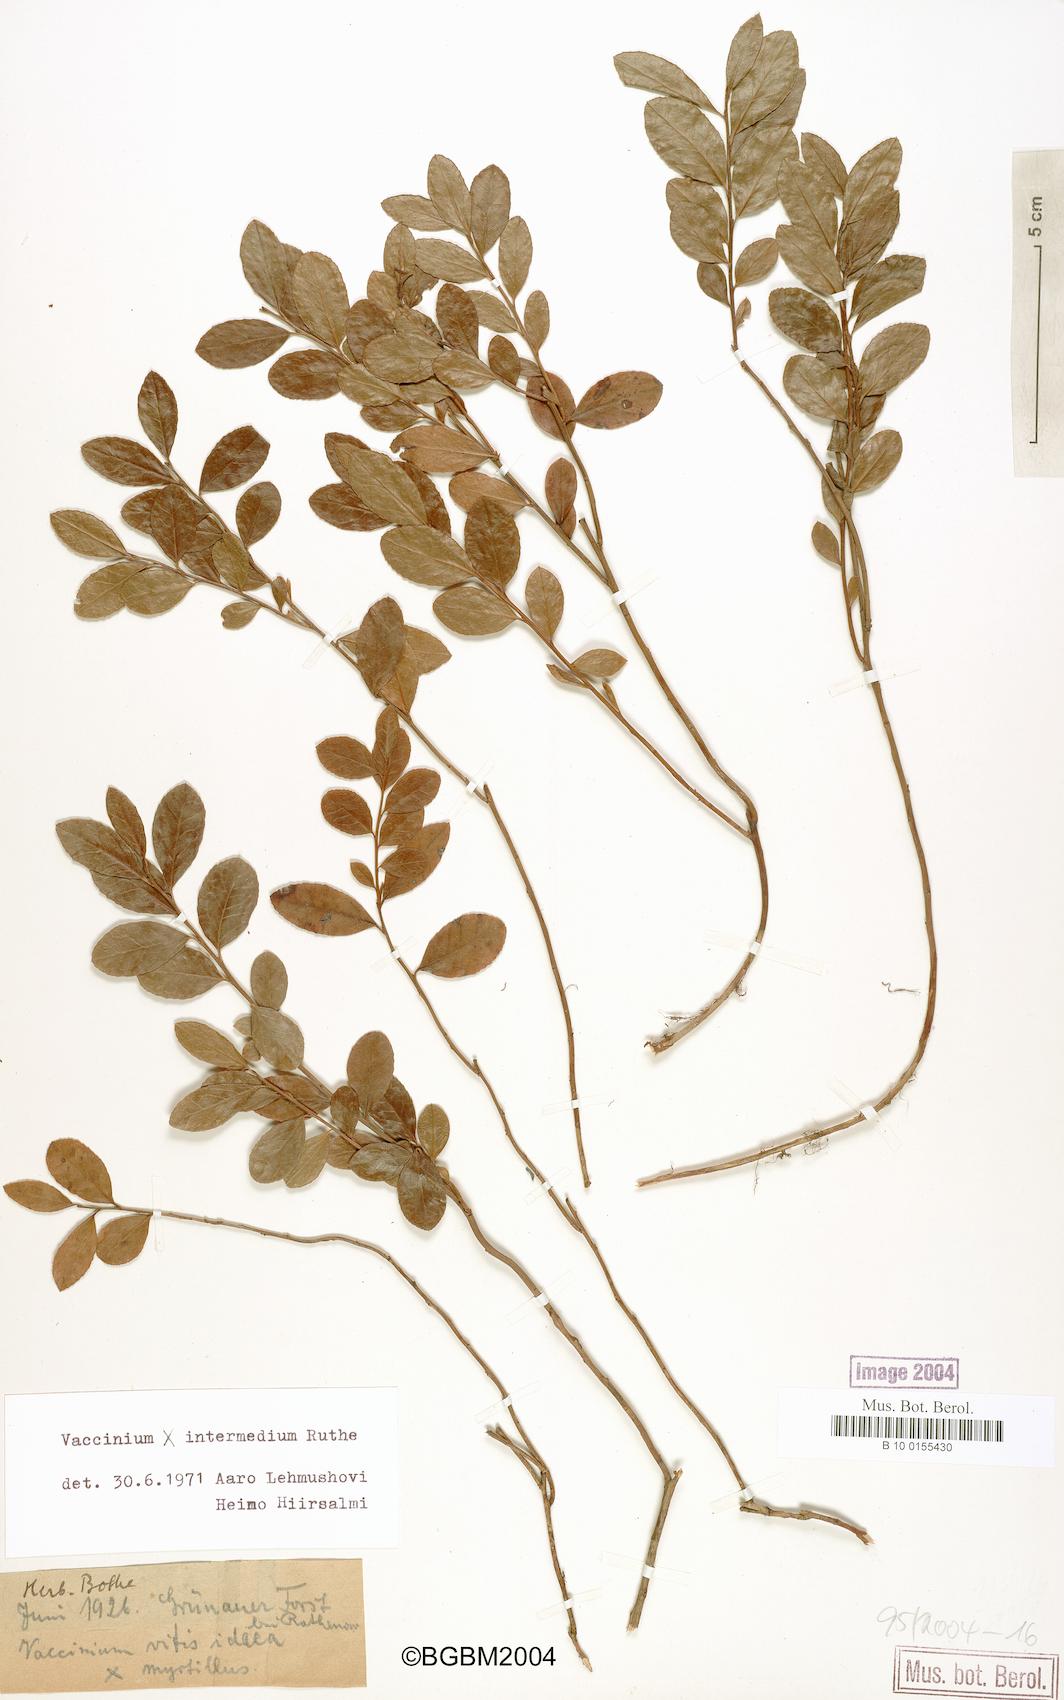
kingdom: Plantae
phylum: Tracheophyta
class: Magnoliopsida
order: Ericales
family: Ericaceae
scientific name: Ericaceae
